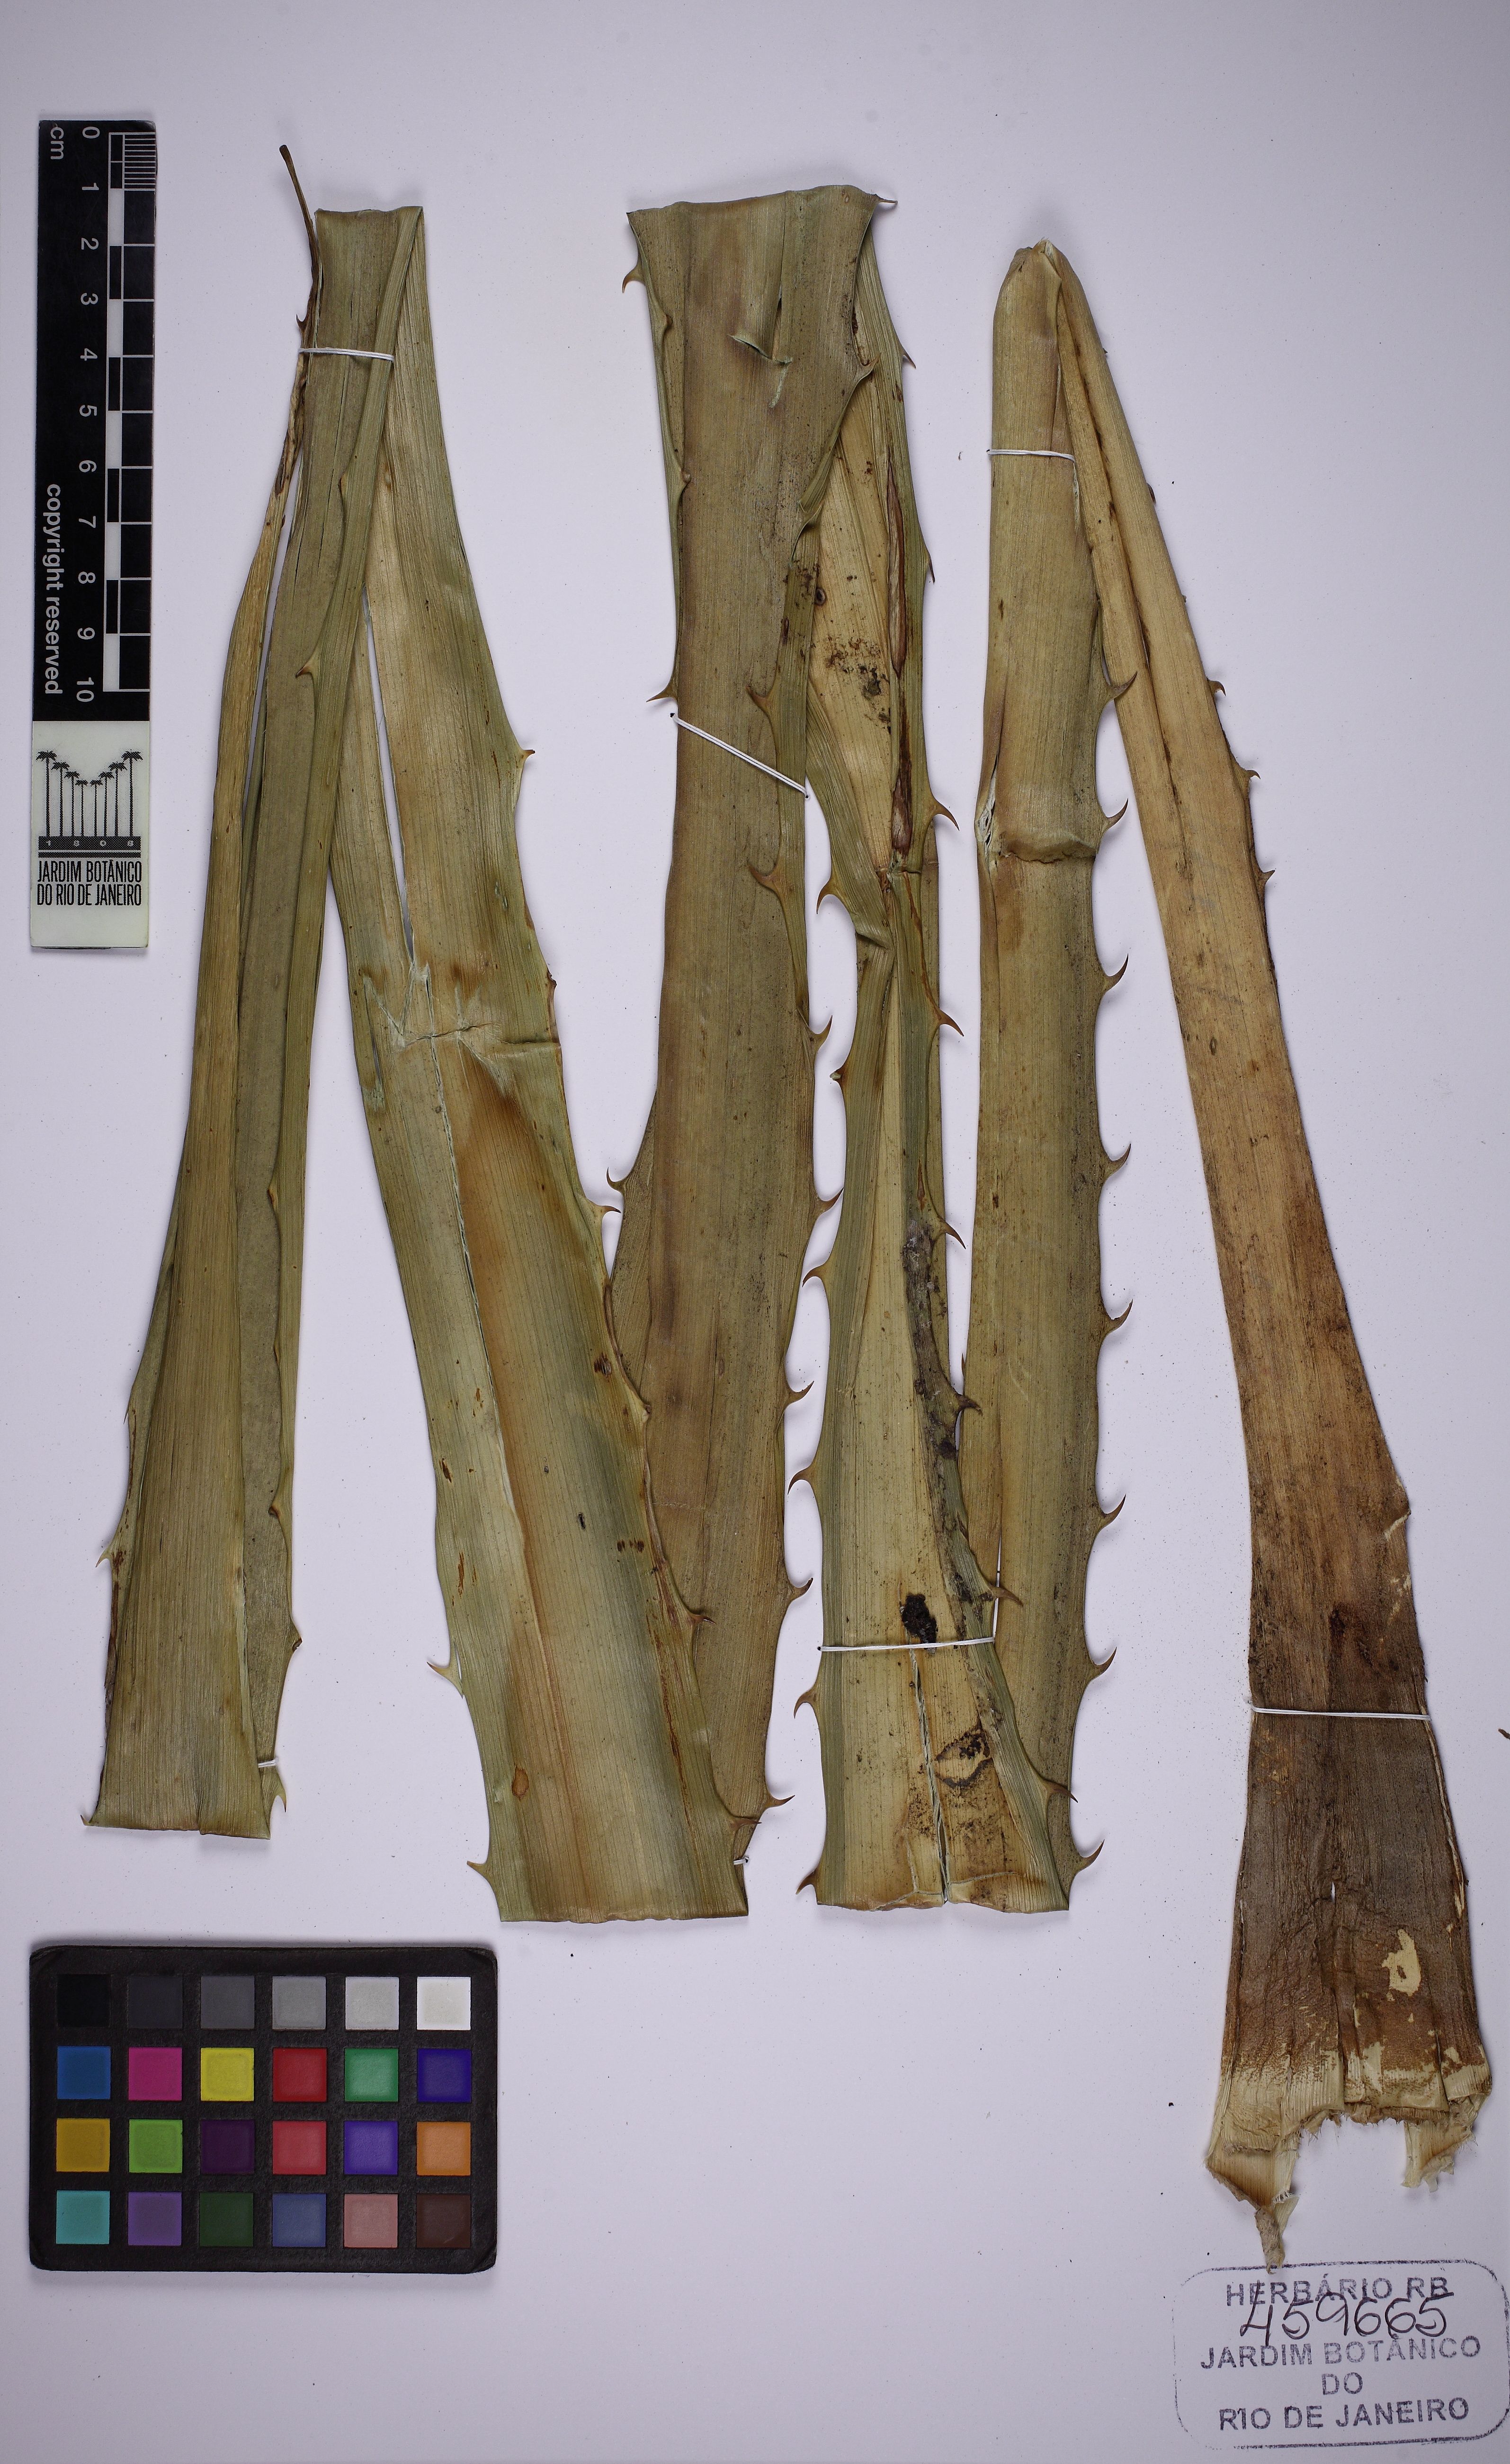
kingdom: Plantae
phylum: Tracheophyta
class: Liliopsida
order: Poales
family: Bromeliaceae
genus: Ananas
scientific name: Ananas comosus
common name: Pineapple
